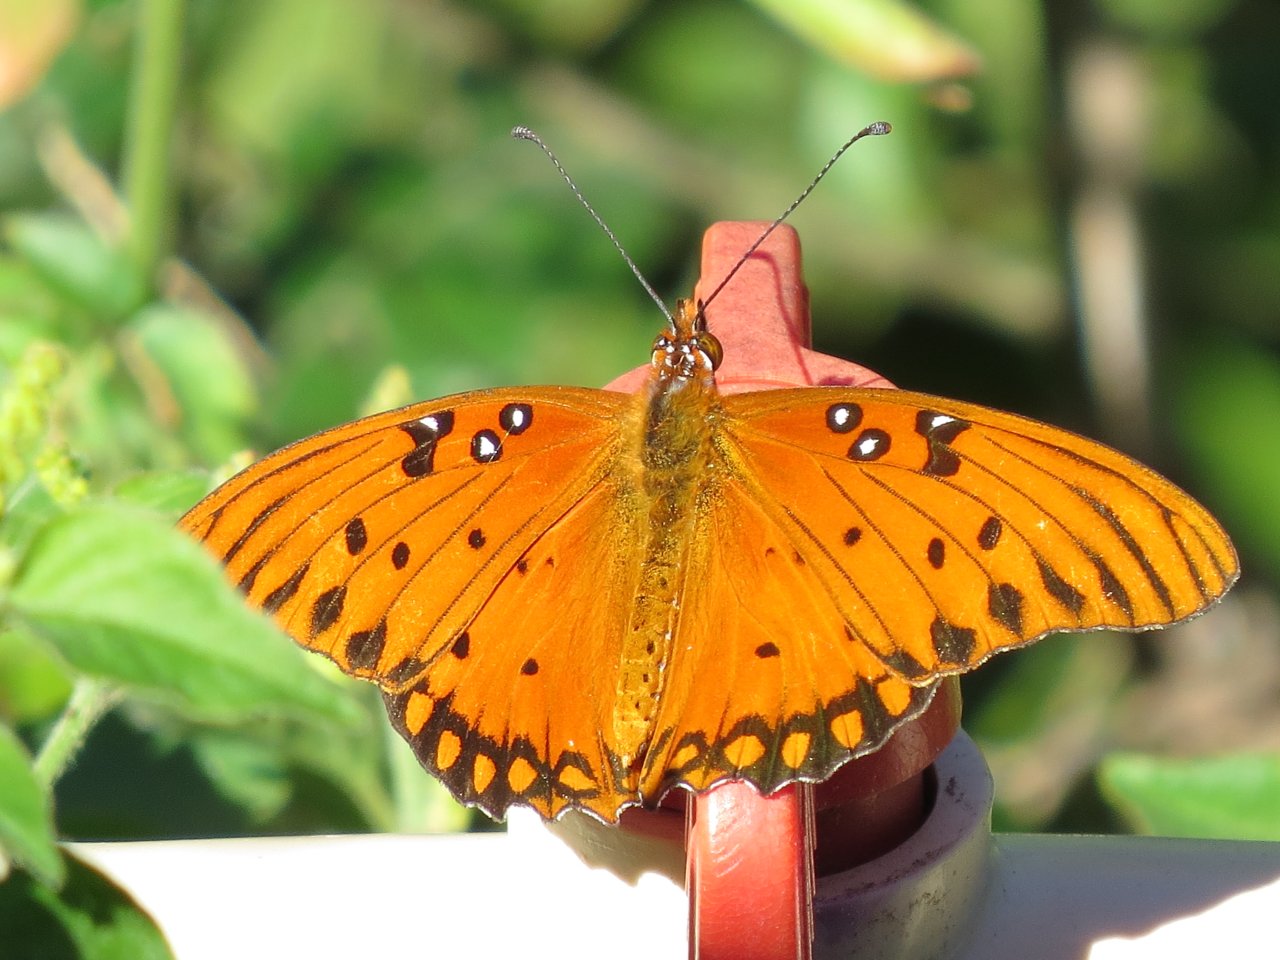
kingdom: Animalia
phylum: Arthropoda
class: Insecta
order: Lepidoptera
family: Nymphalidae
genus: Dione
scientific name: Dione vanillae
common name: Gulf Fritillary
